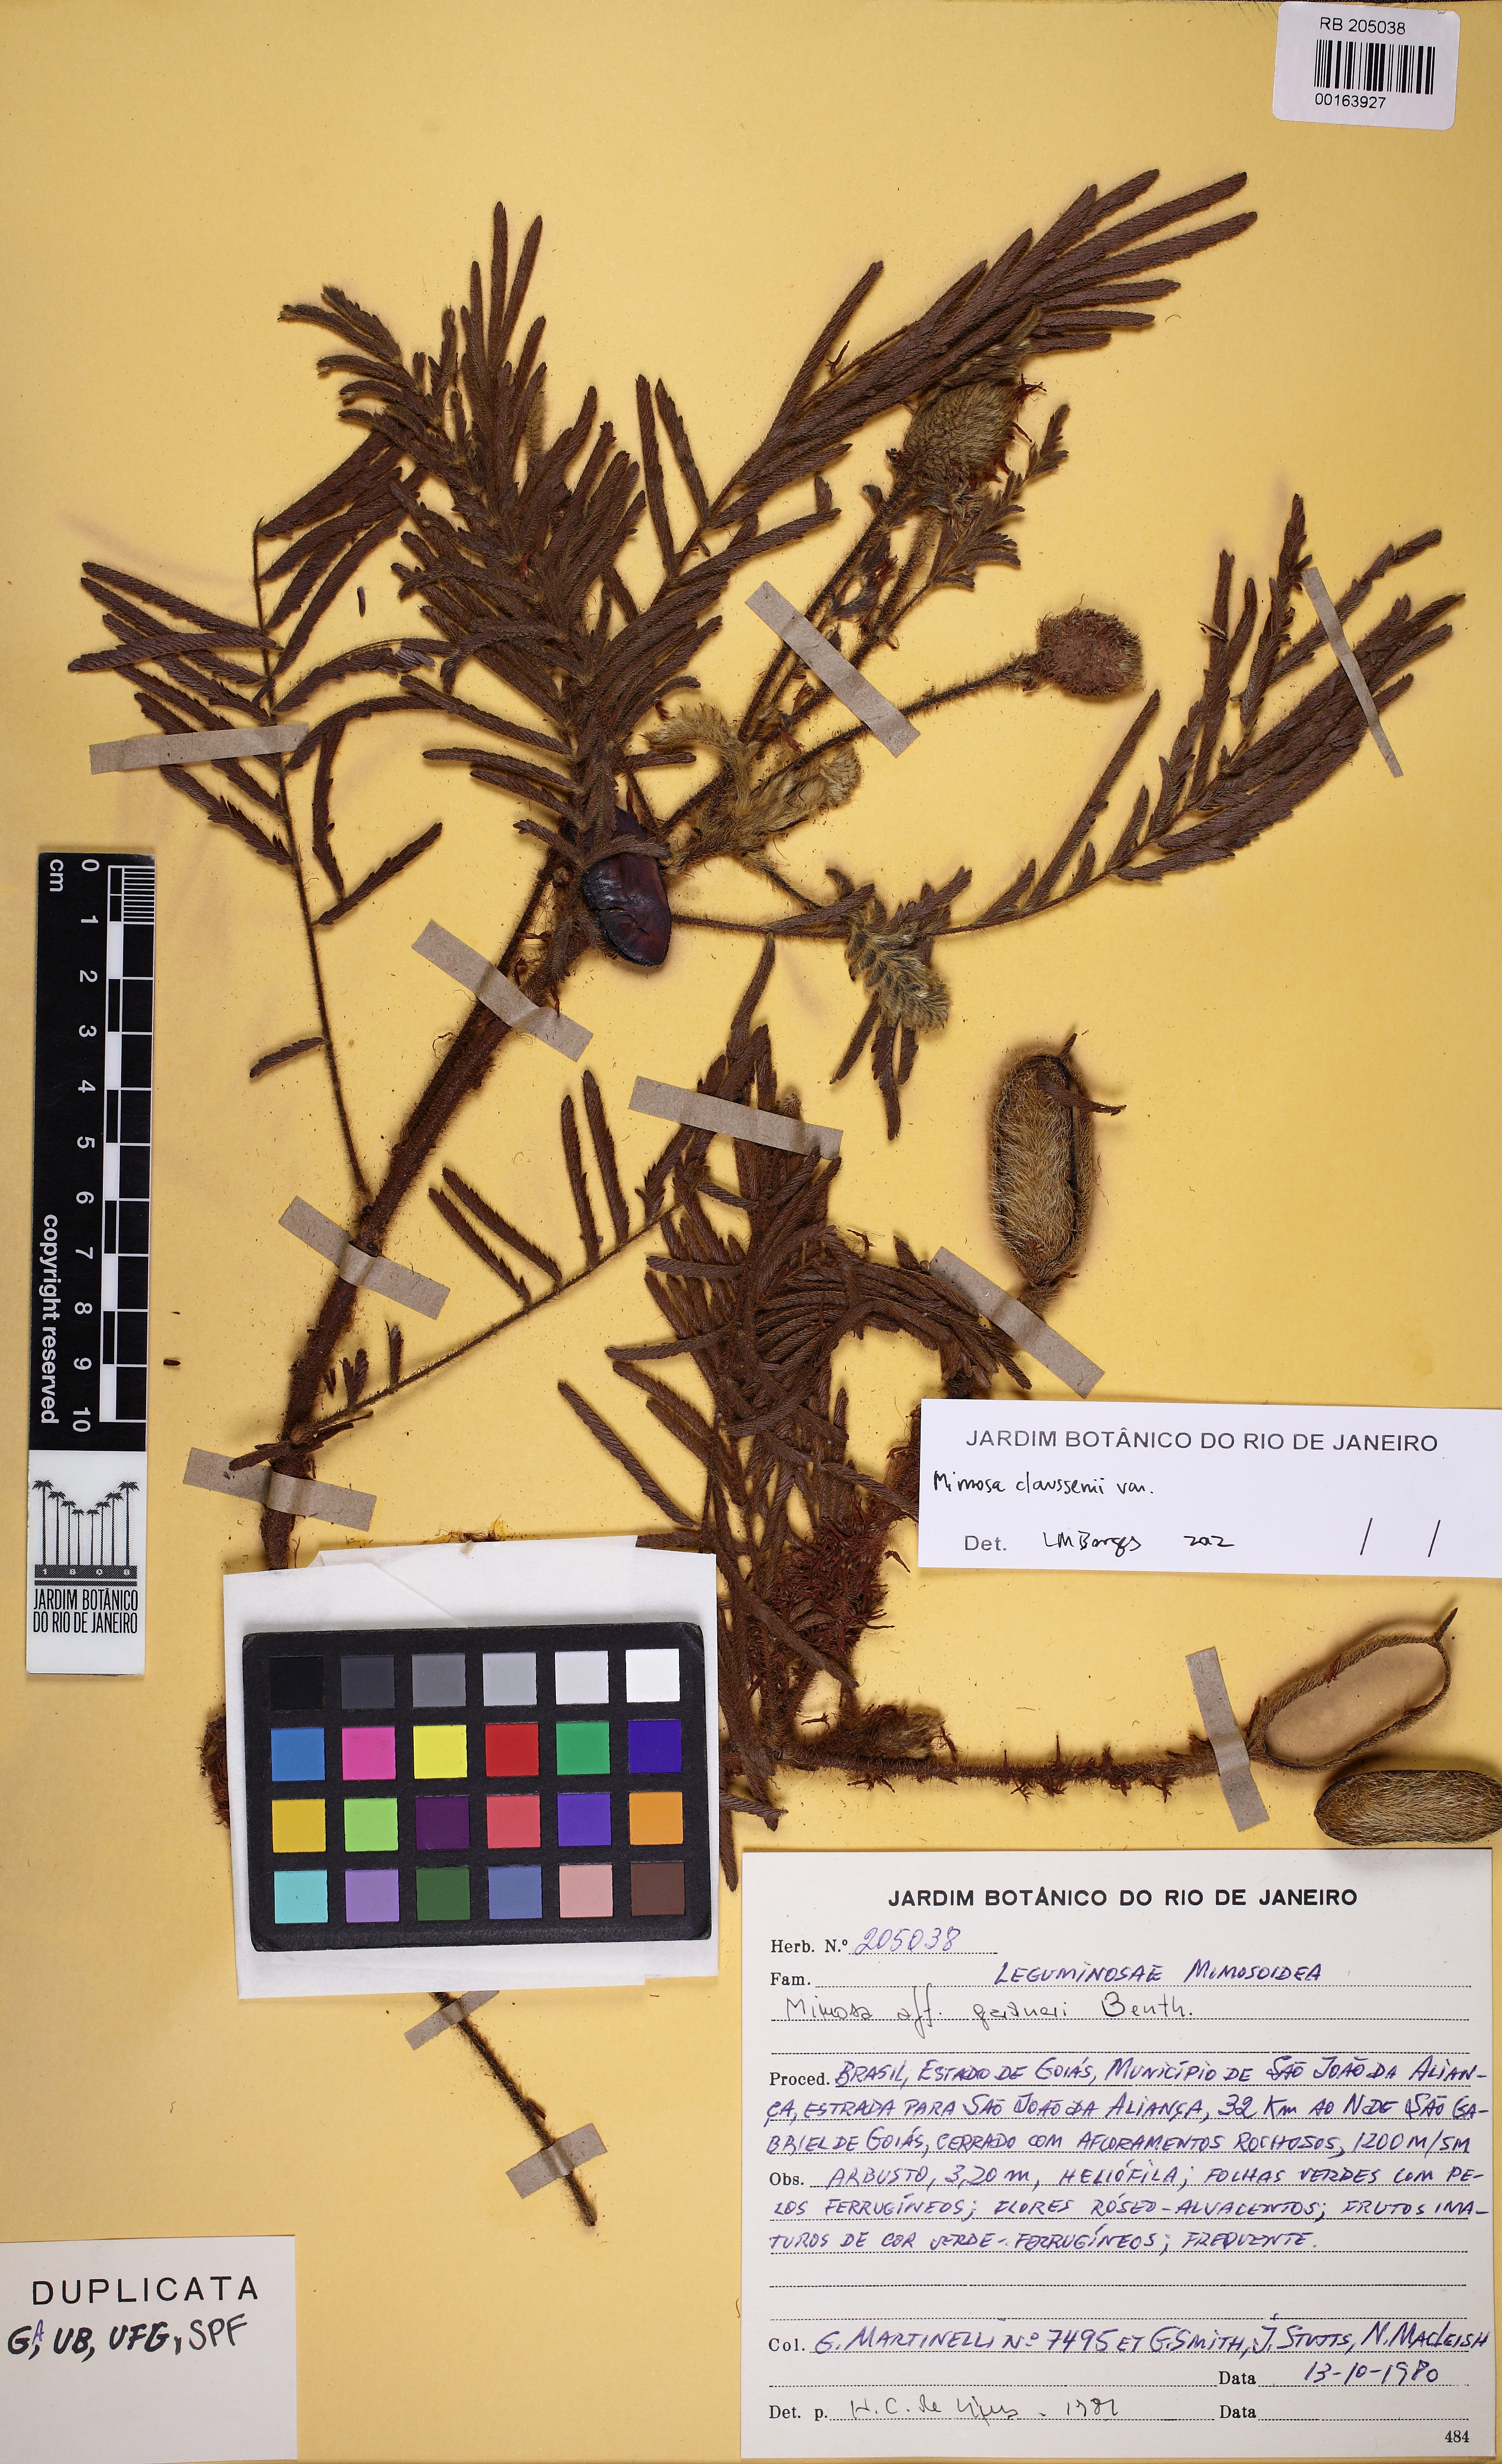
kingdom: Plantae
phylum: Tracheophyta
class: Magnoliopsida
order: Fabales
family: Fabaceae
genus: Mimosa
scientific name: Mimosa claussenii
